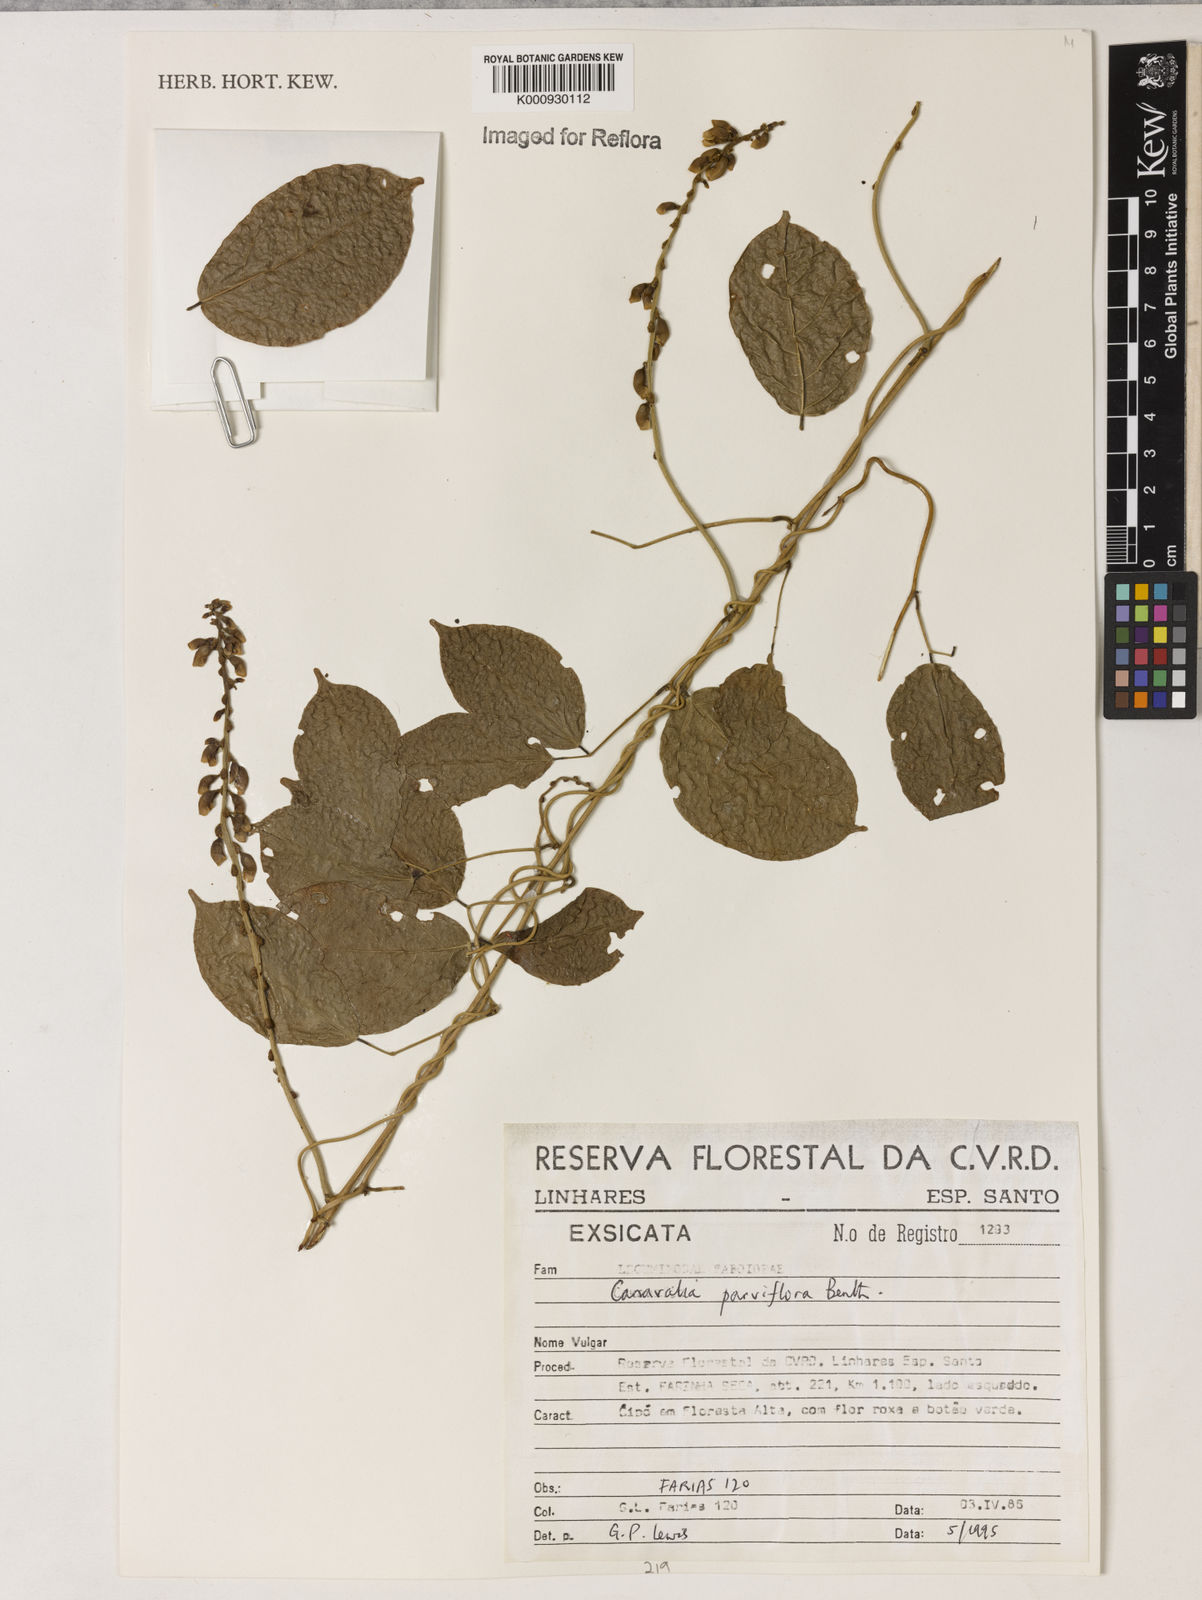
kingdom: Plantae
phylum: Tracheophyta
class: Magnoliopsida
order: Fabales
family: Fabaceae
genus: Canavalia
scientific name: Canavalia parviflora
